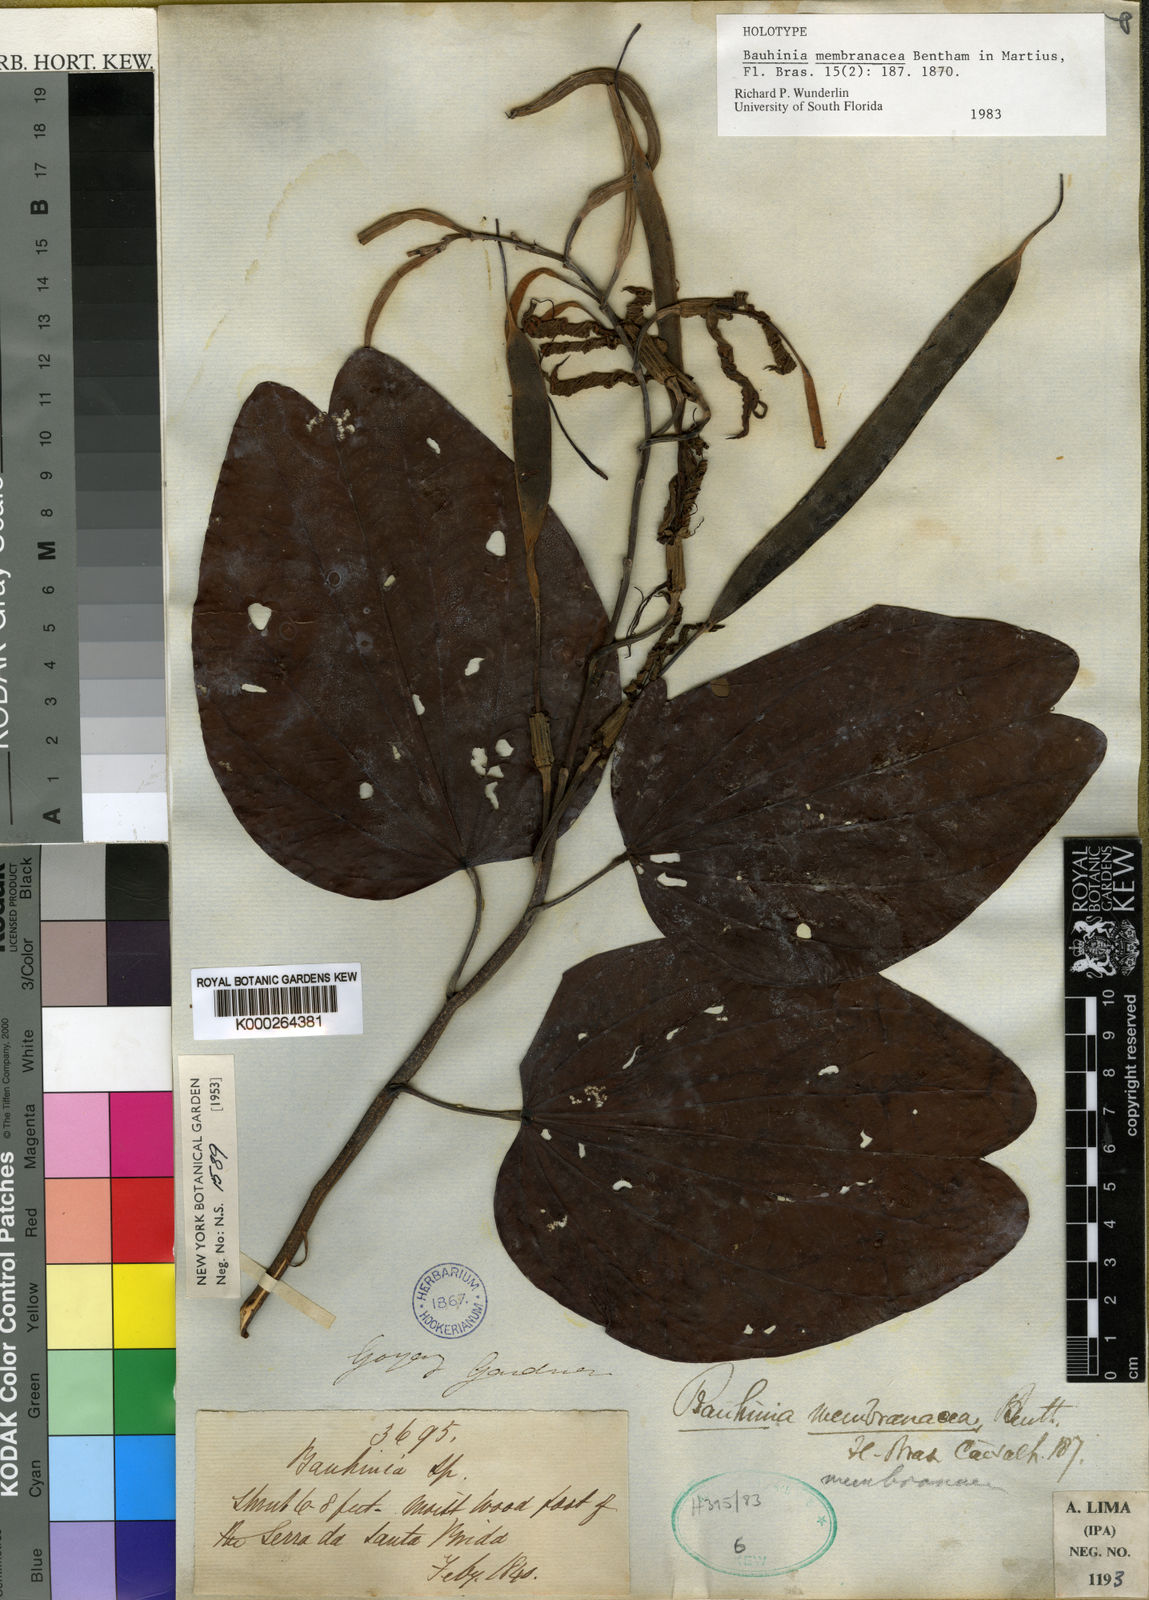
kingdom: Plantae
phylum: Tracheophyta
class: Magnoliopsida
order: Fabales
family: Fabaceae
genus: Bauhinia
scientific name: Bauhinia membranacea
